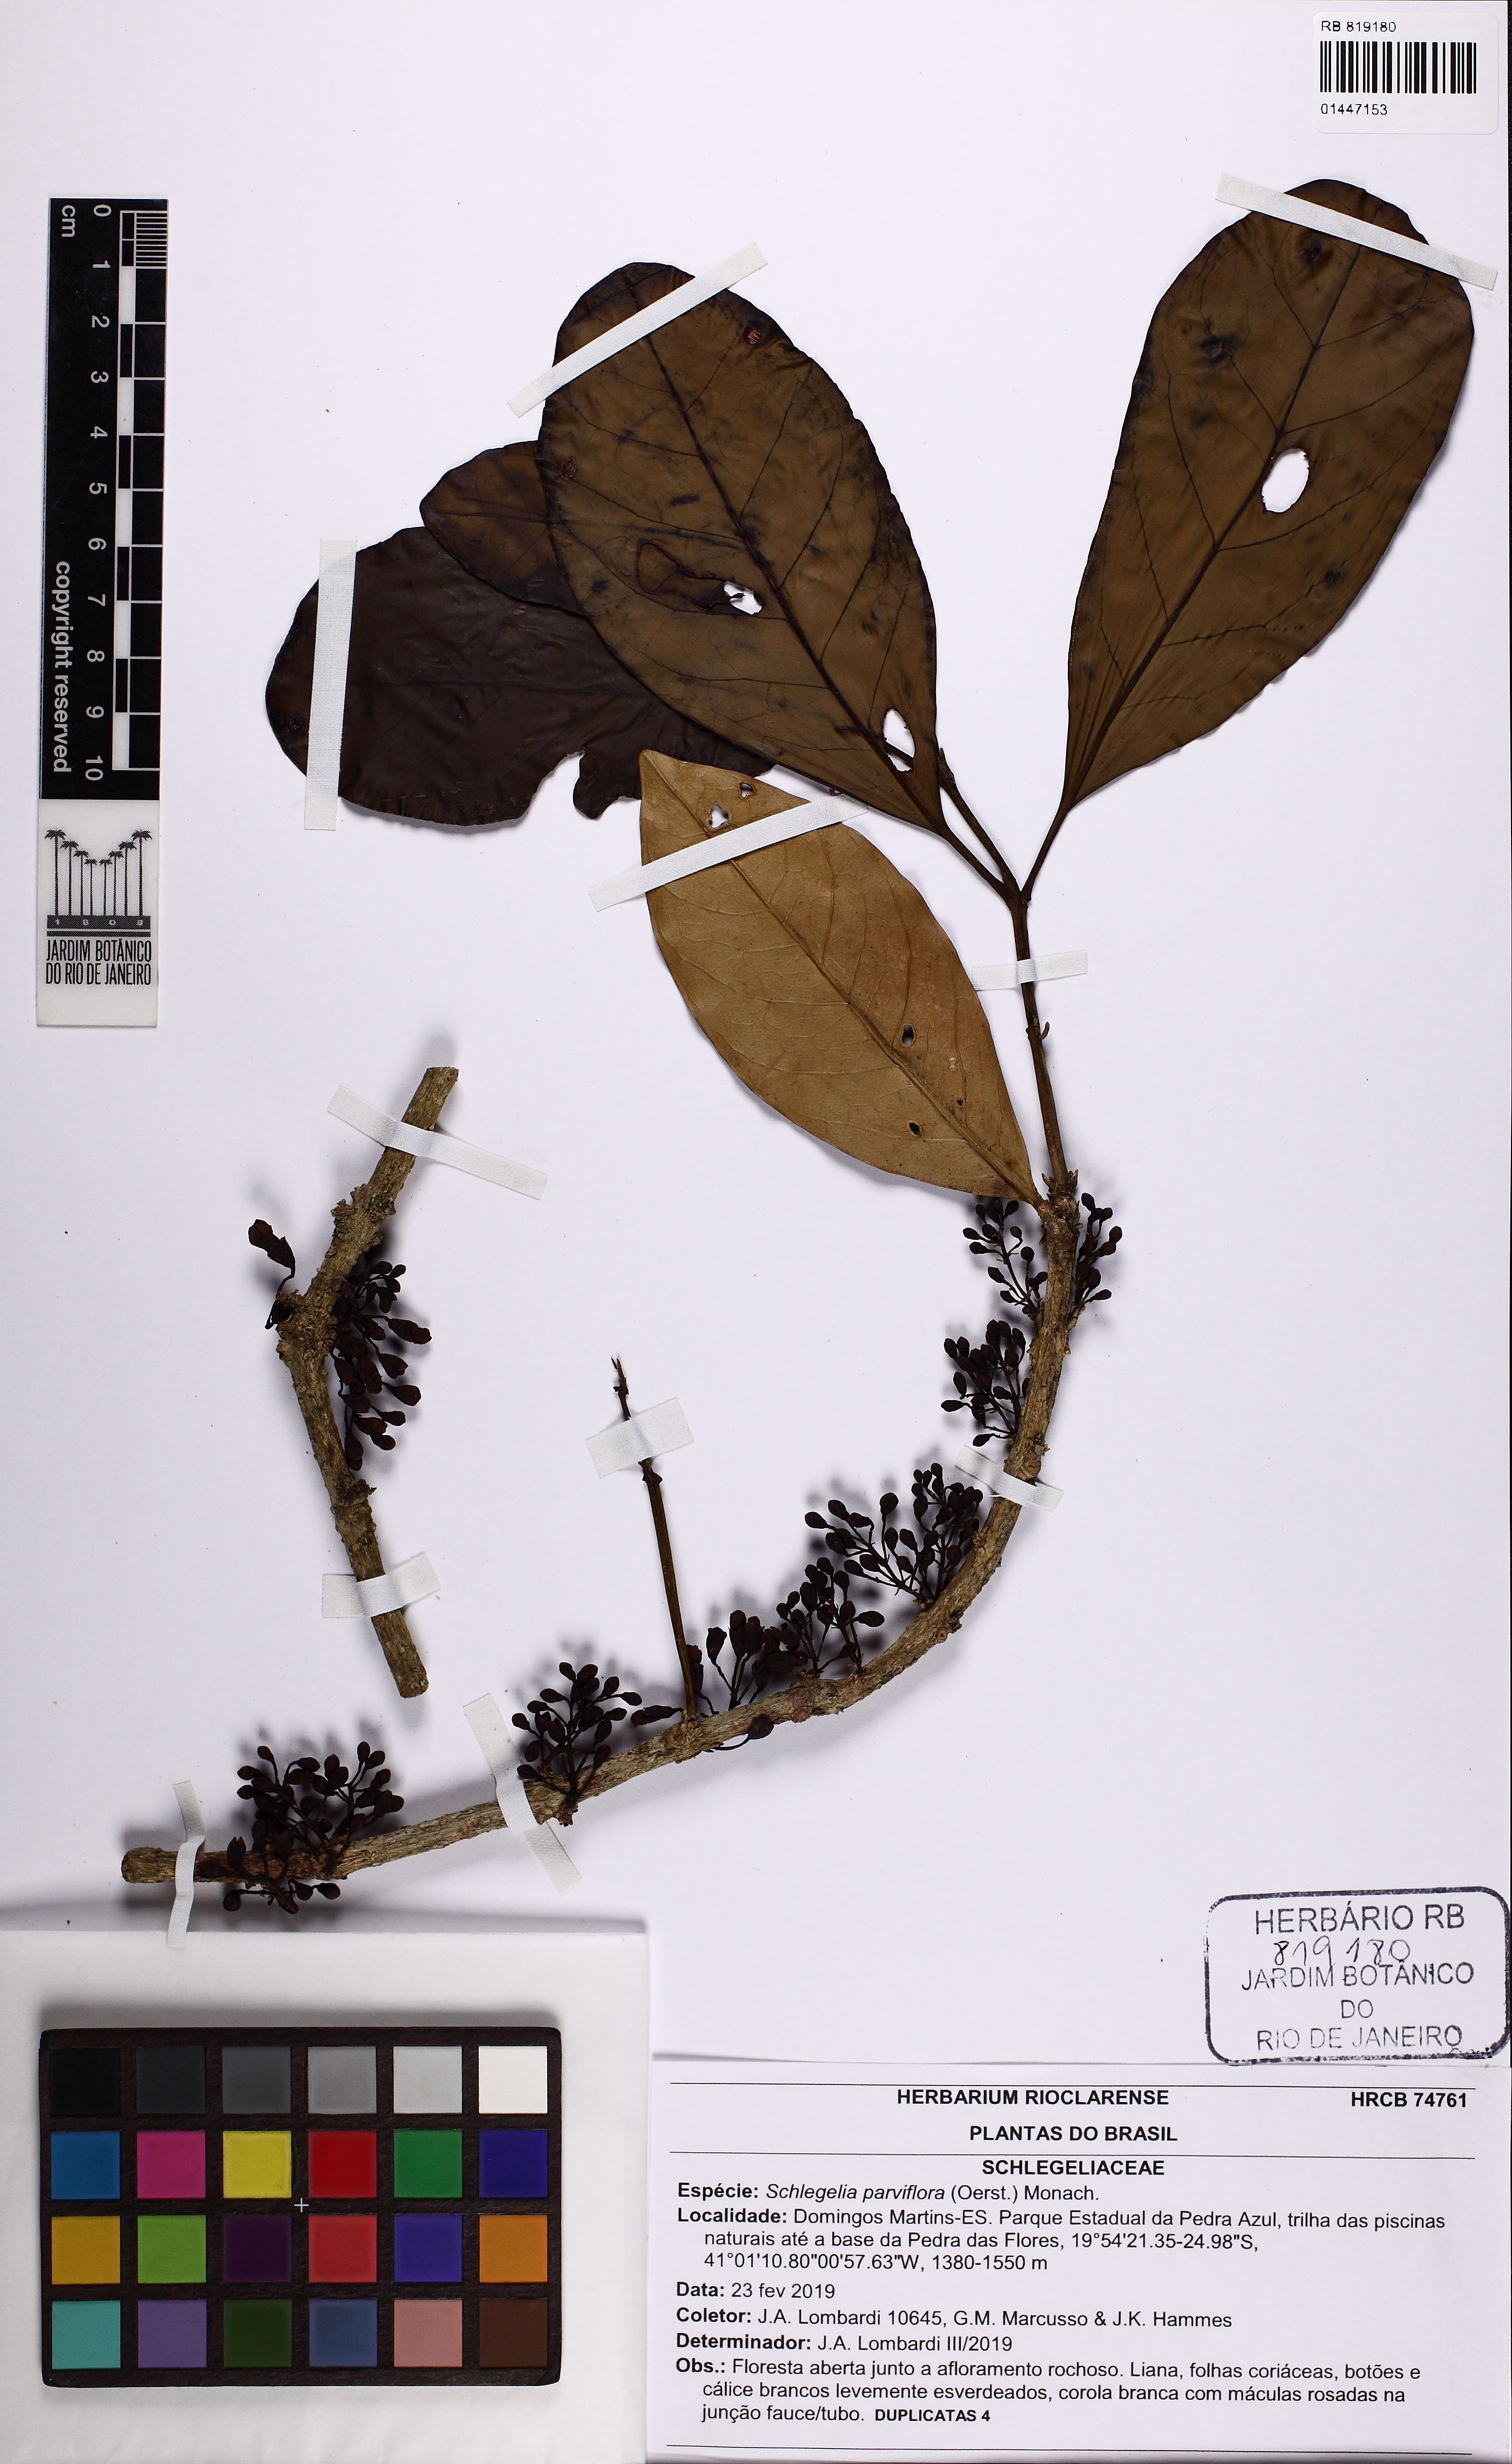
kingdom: Plantae
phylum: Tracheophyta
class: Magnoliopsida
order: Lamiales
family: Schlegeliaceae
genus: Schlegelia
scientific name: Schlegelia parviflora
